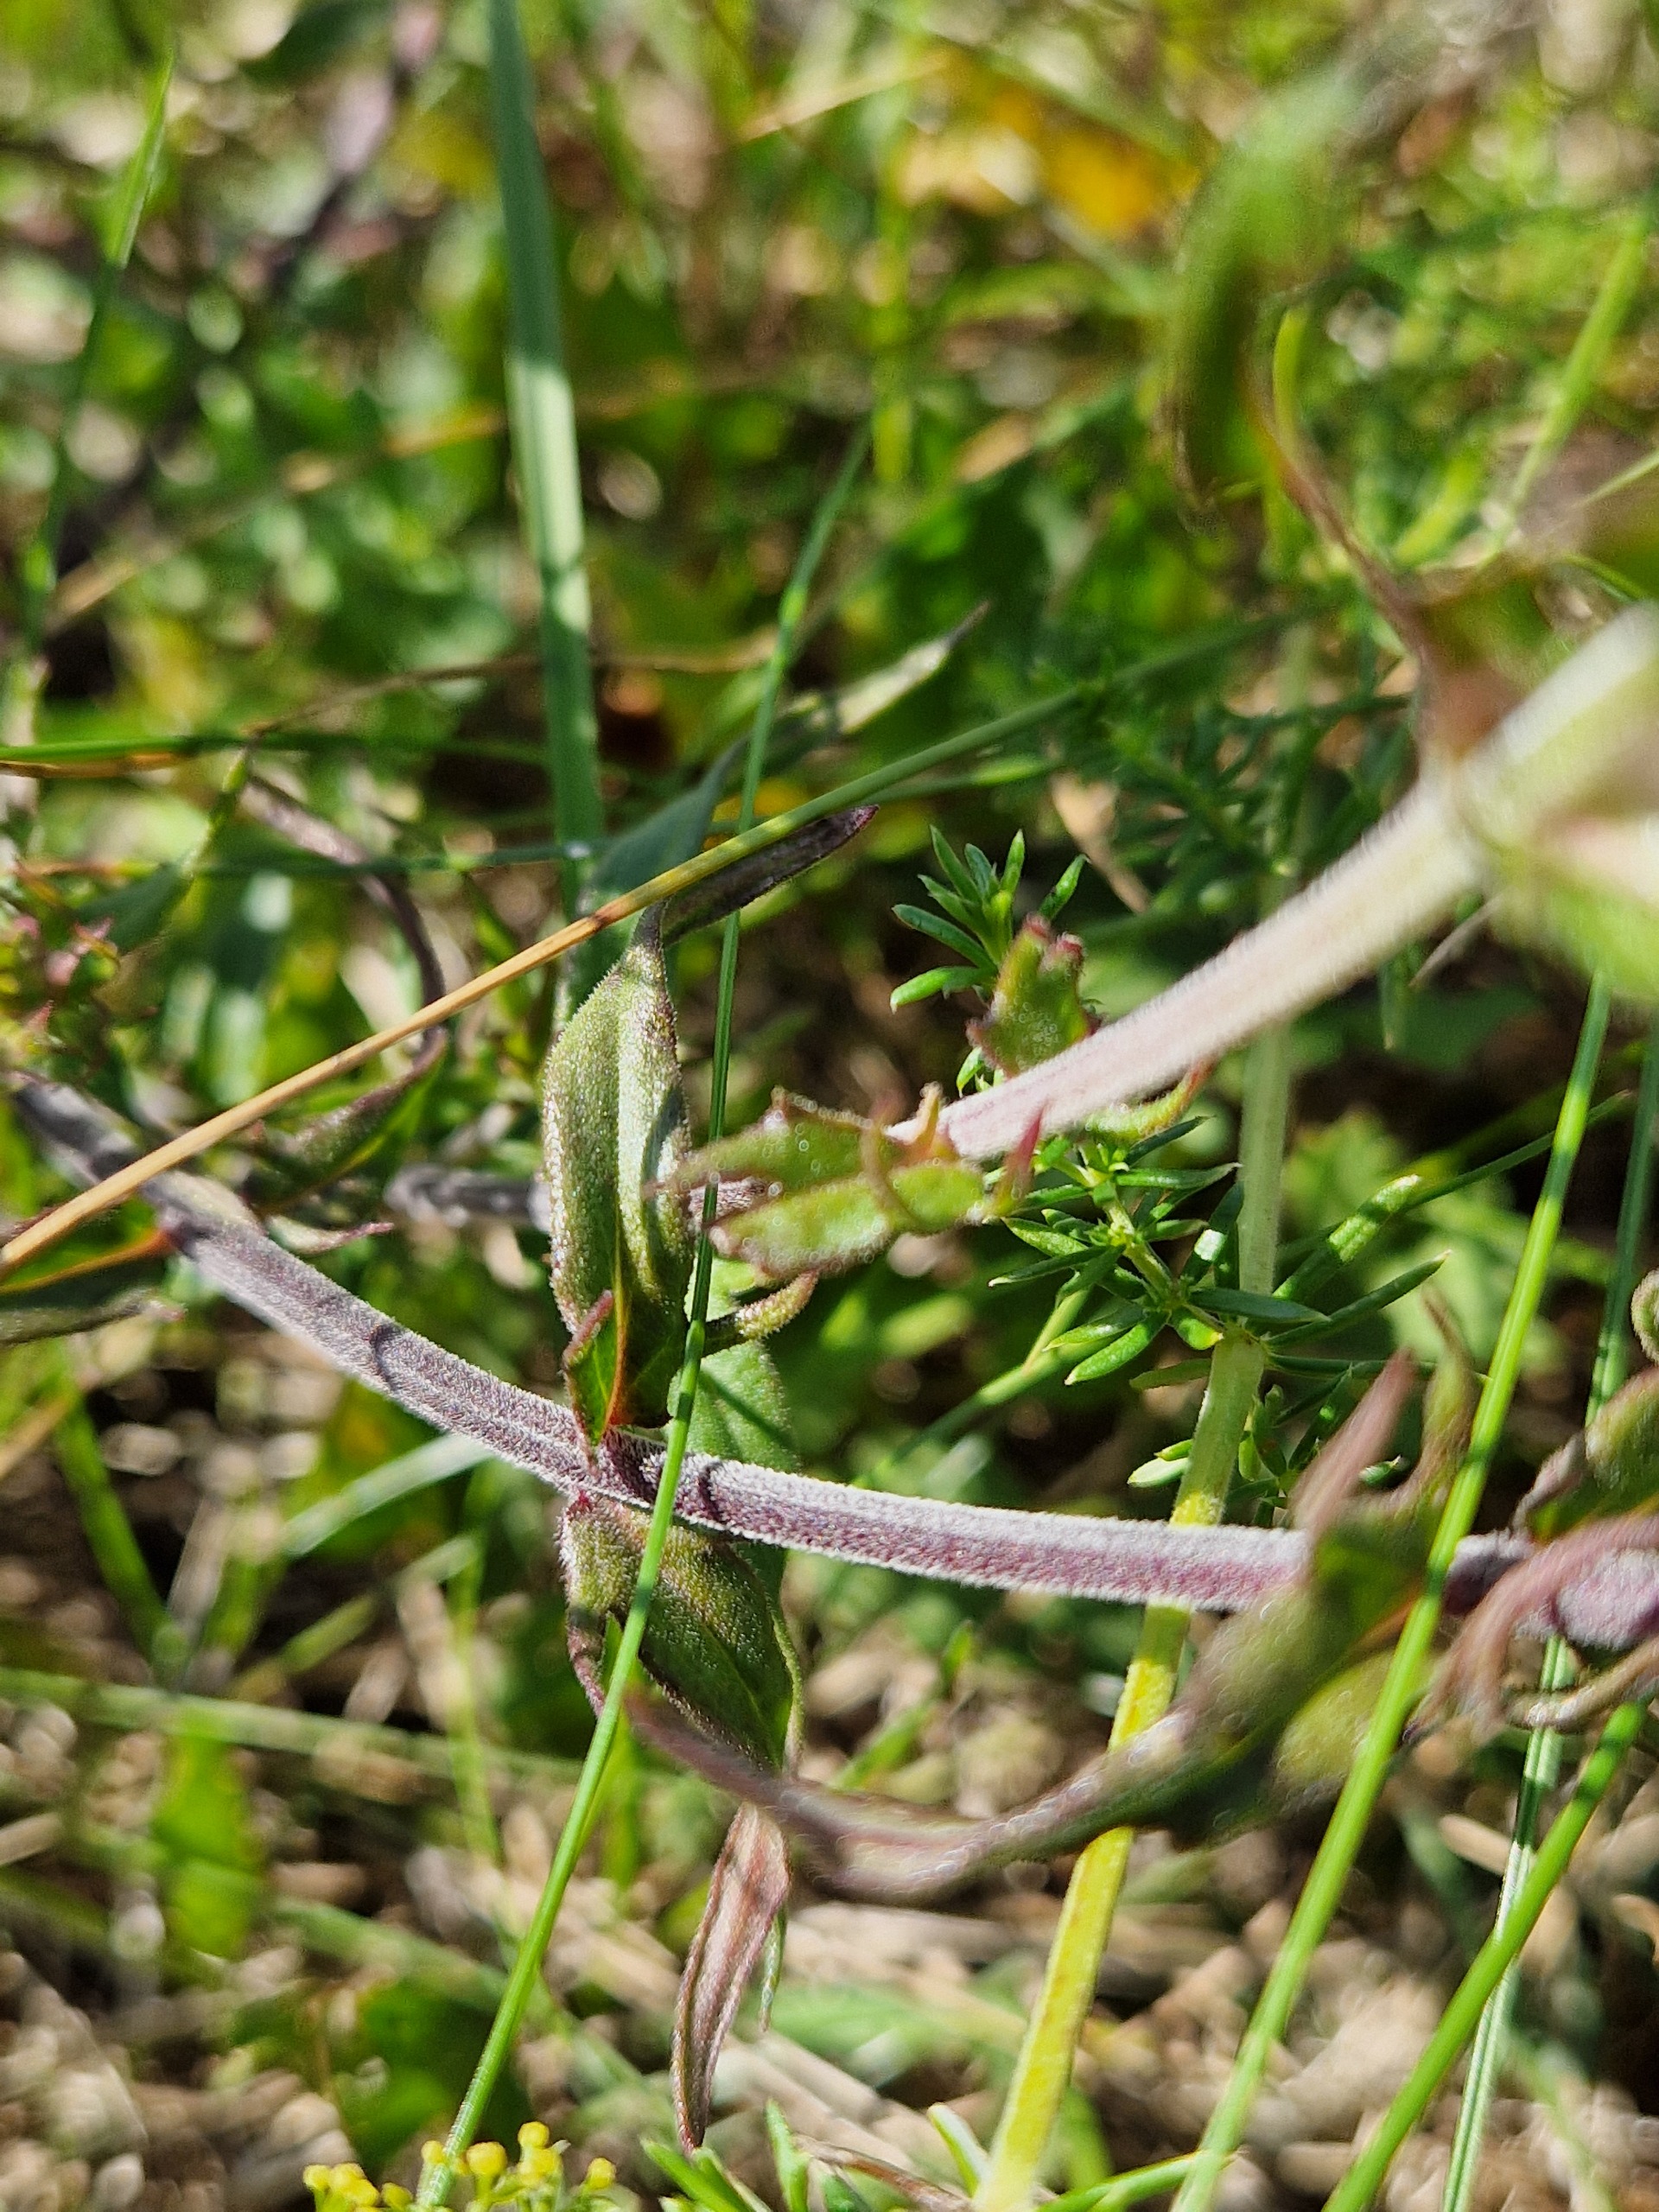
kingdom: Plantae
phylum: Tracheophyta
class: Magnoliopsida
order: Lamiales
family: Orobanchaceae
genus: Melampyrum
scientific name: Melampyrum arvense
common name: Ager-kohvede
